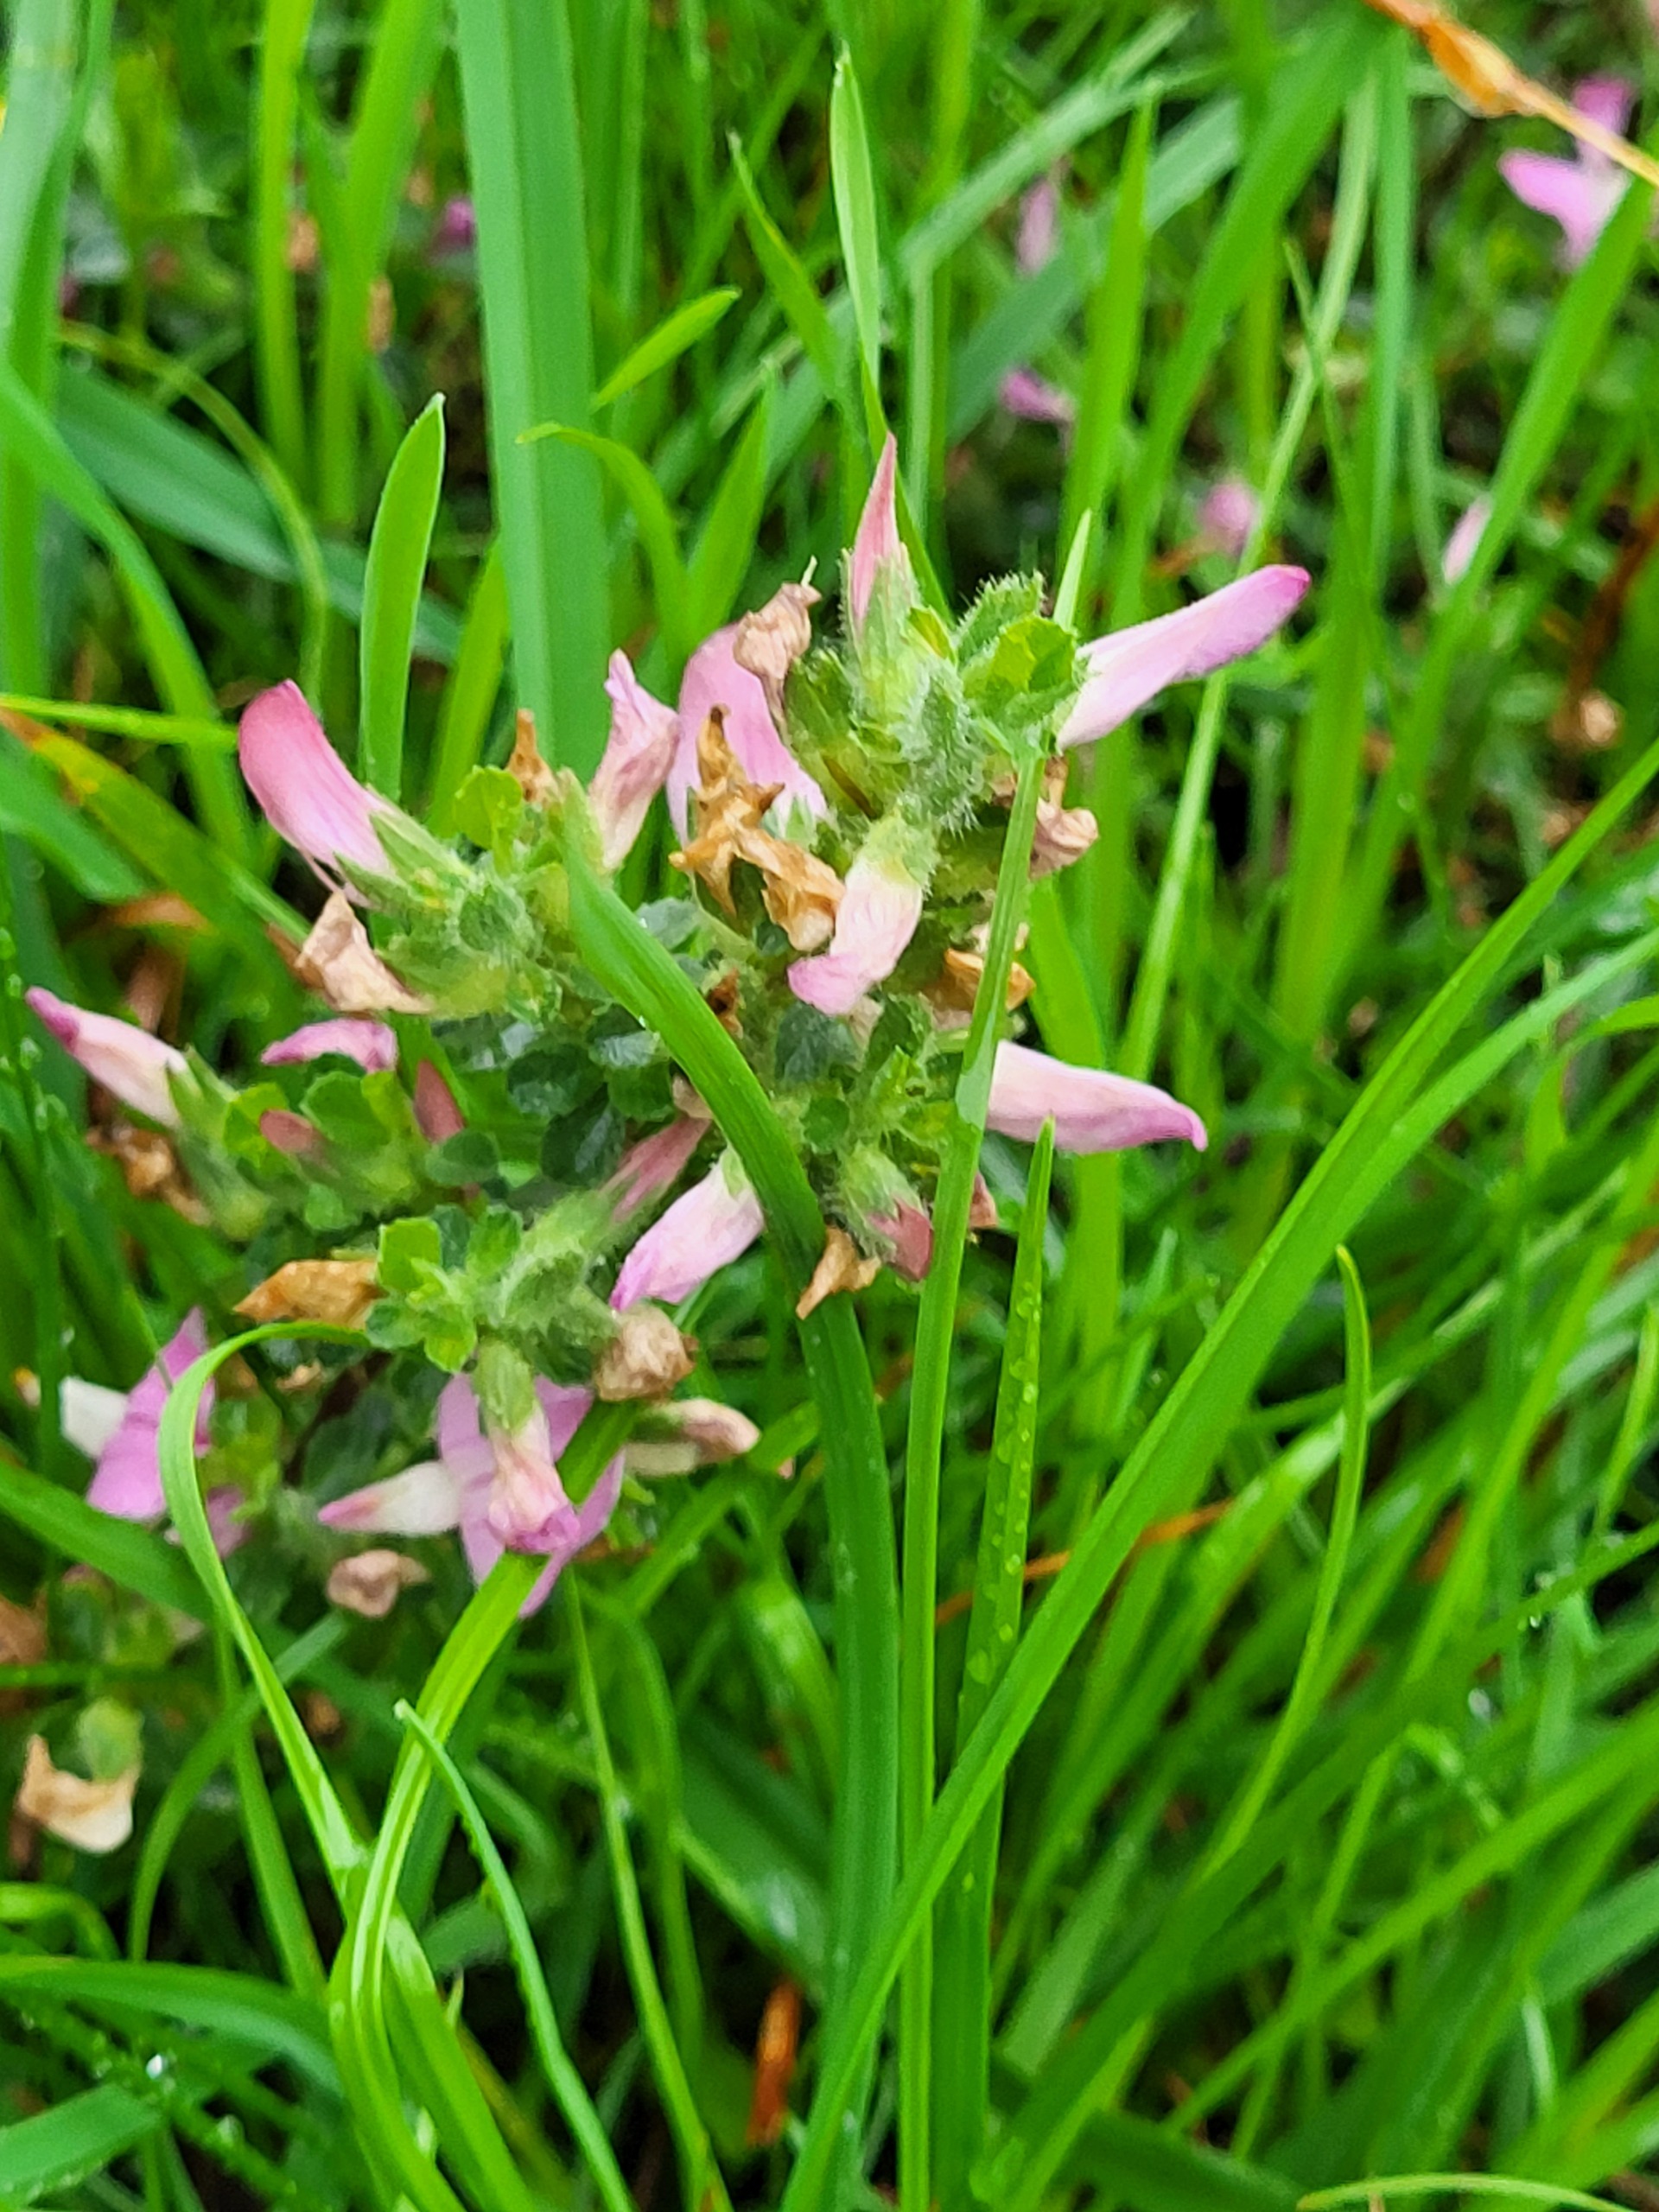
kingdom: Plantae
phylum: Tracheophyta
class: Magnoliopsida
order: Fabales
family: Fabaceae
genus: Ononis
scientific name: Ononis spinosa
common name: Mark-krageklo
